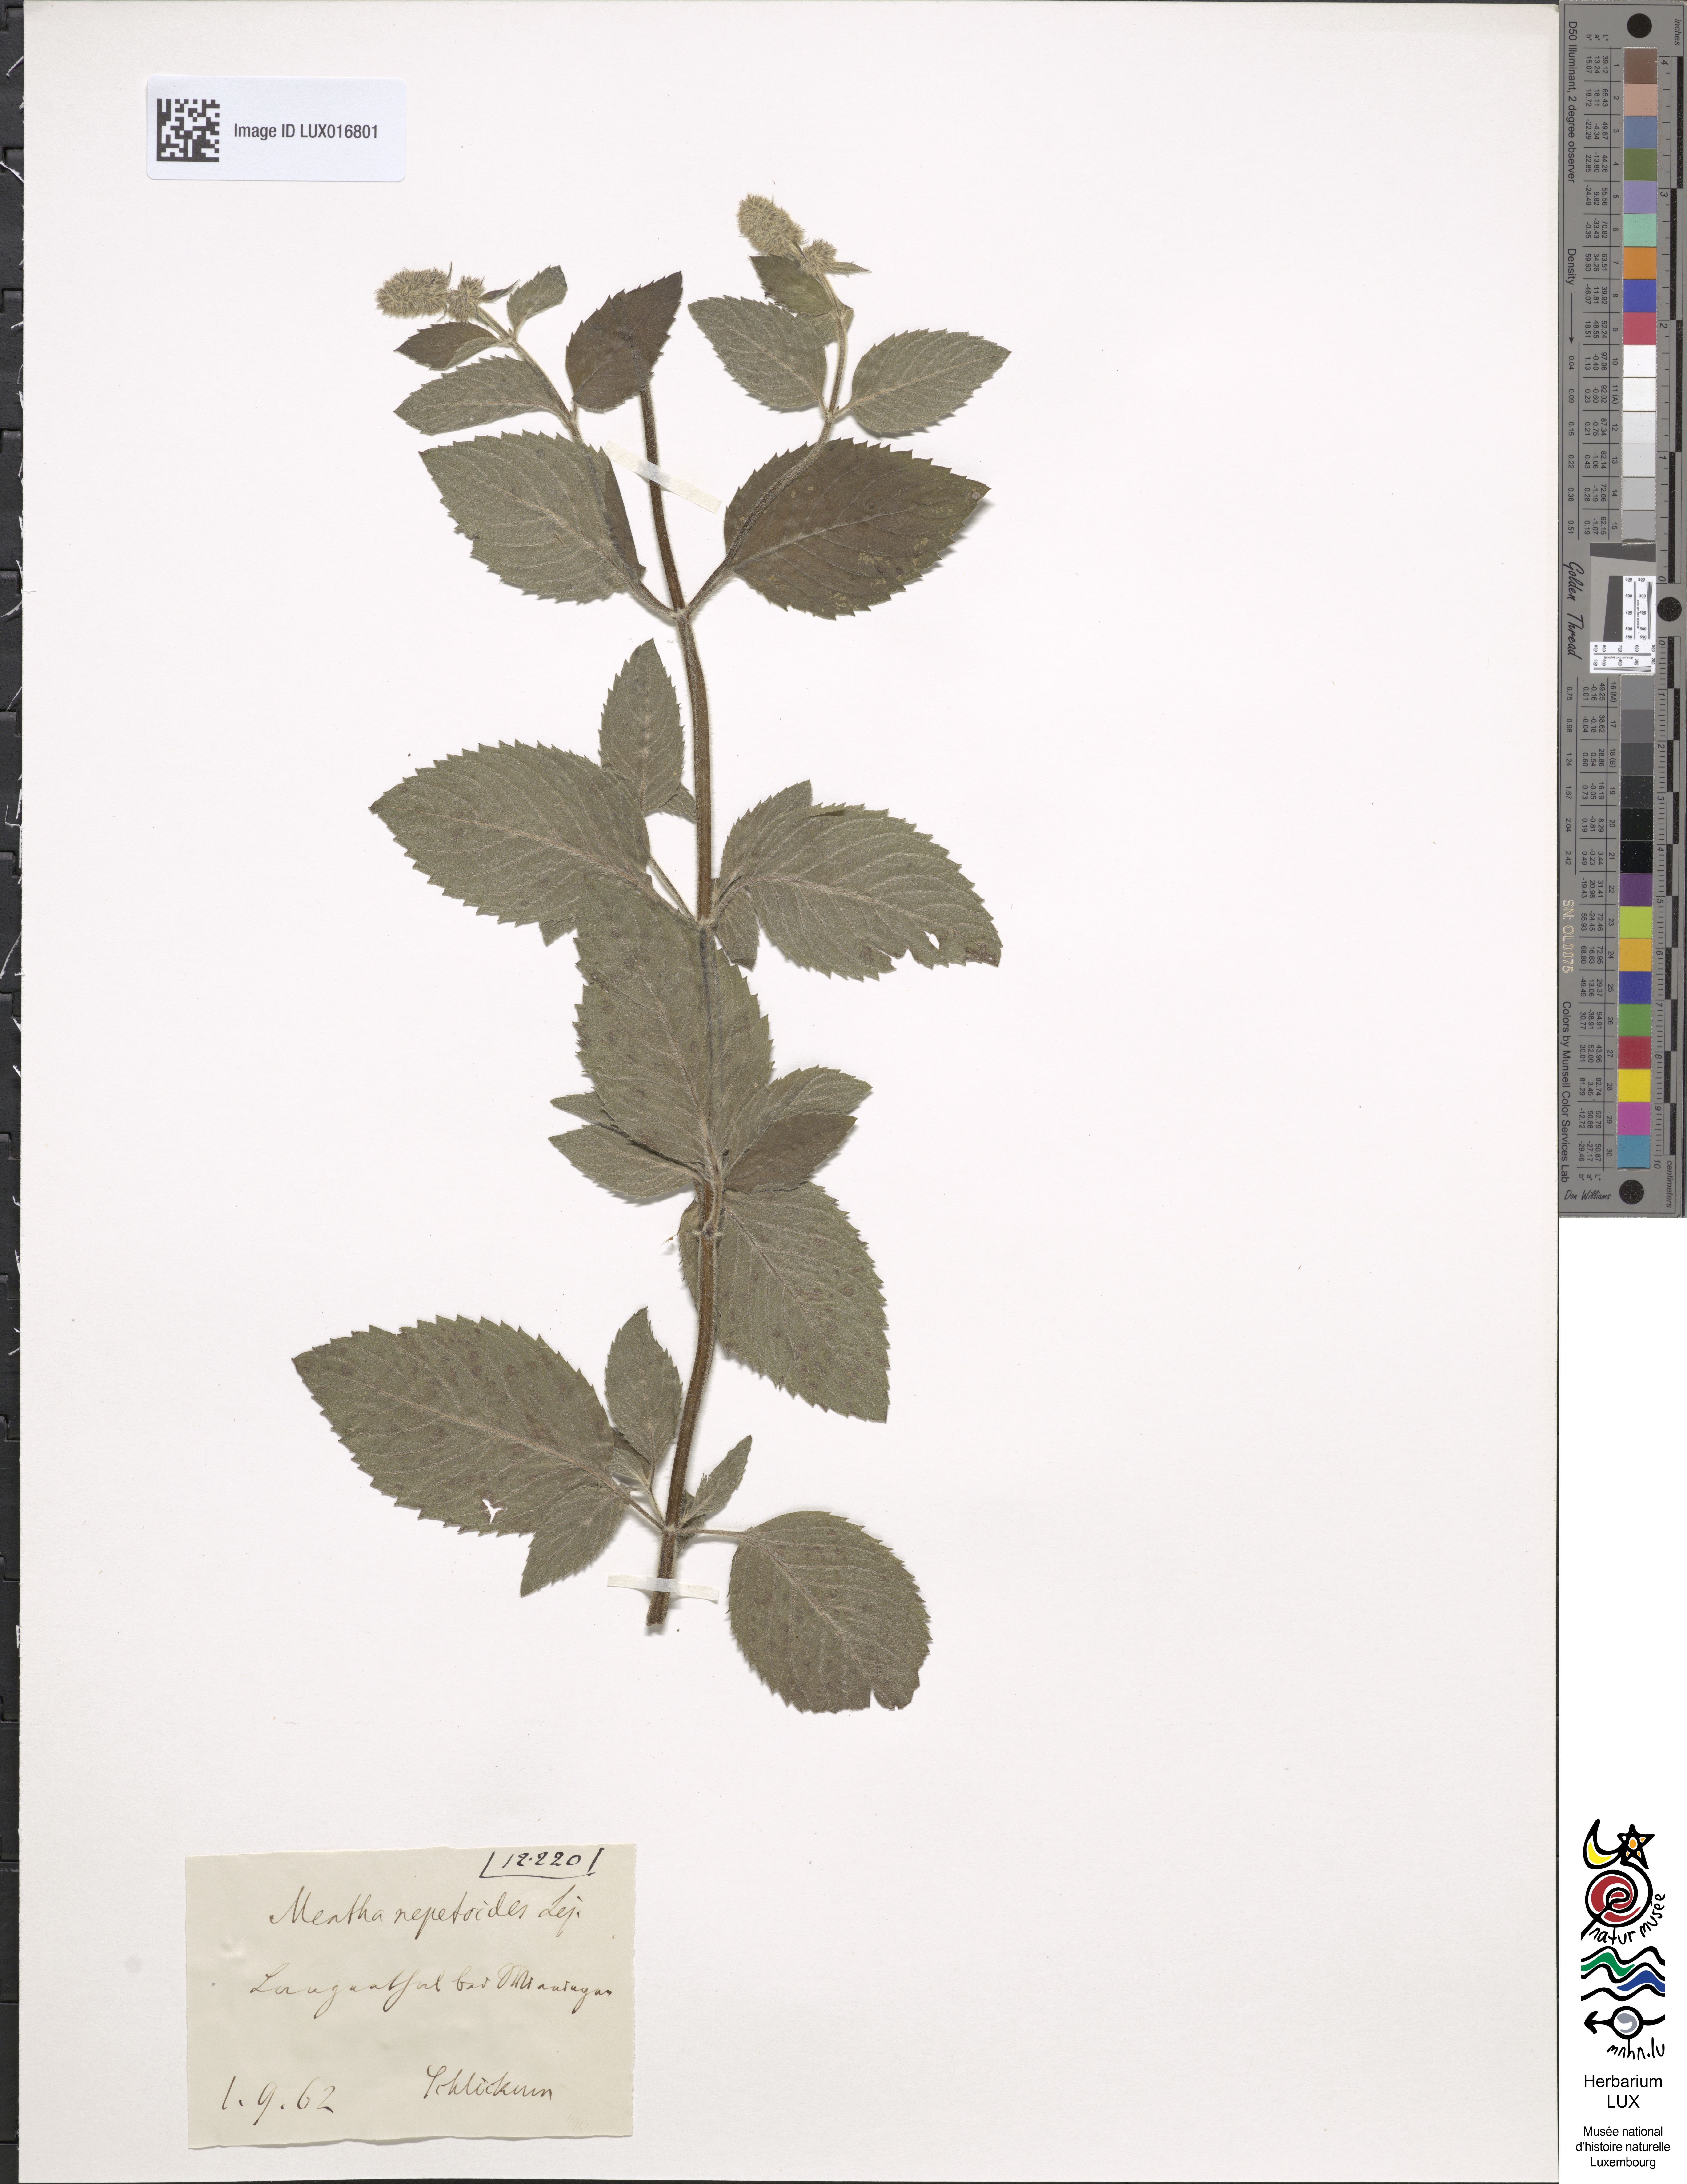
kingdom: Plantae
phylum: Tracheophyta
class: Magnoliopsida
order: Lamiales
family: Lamiaceae
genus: Mentha
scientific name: Mentha dumetorum
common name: Bush-loving mint
